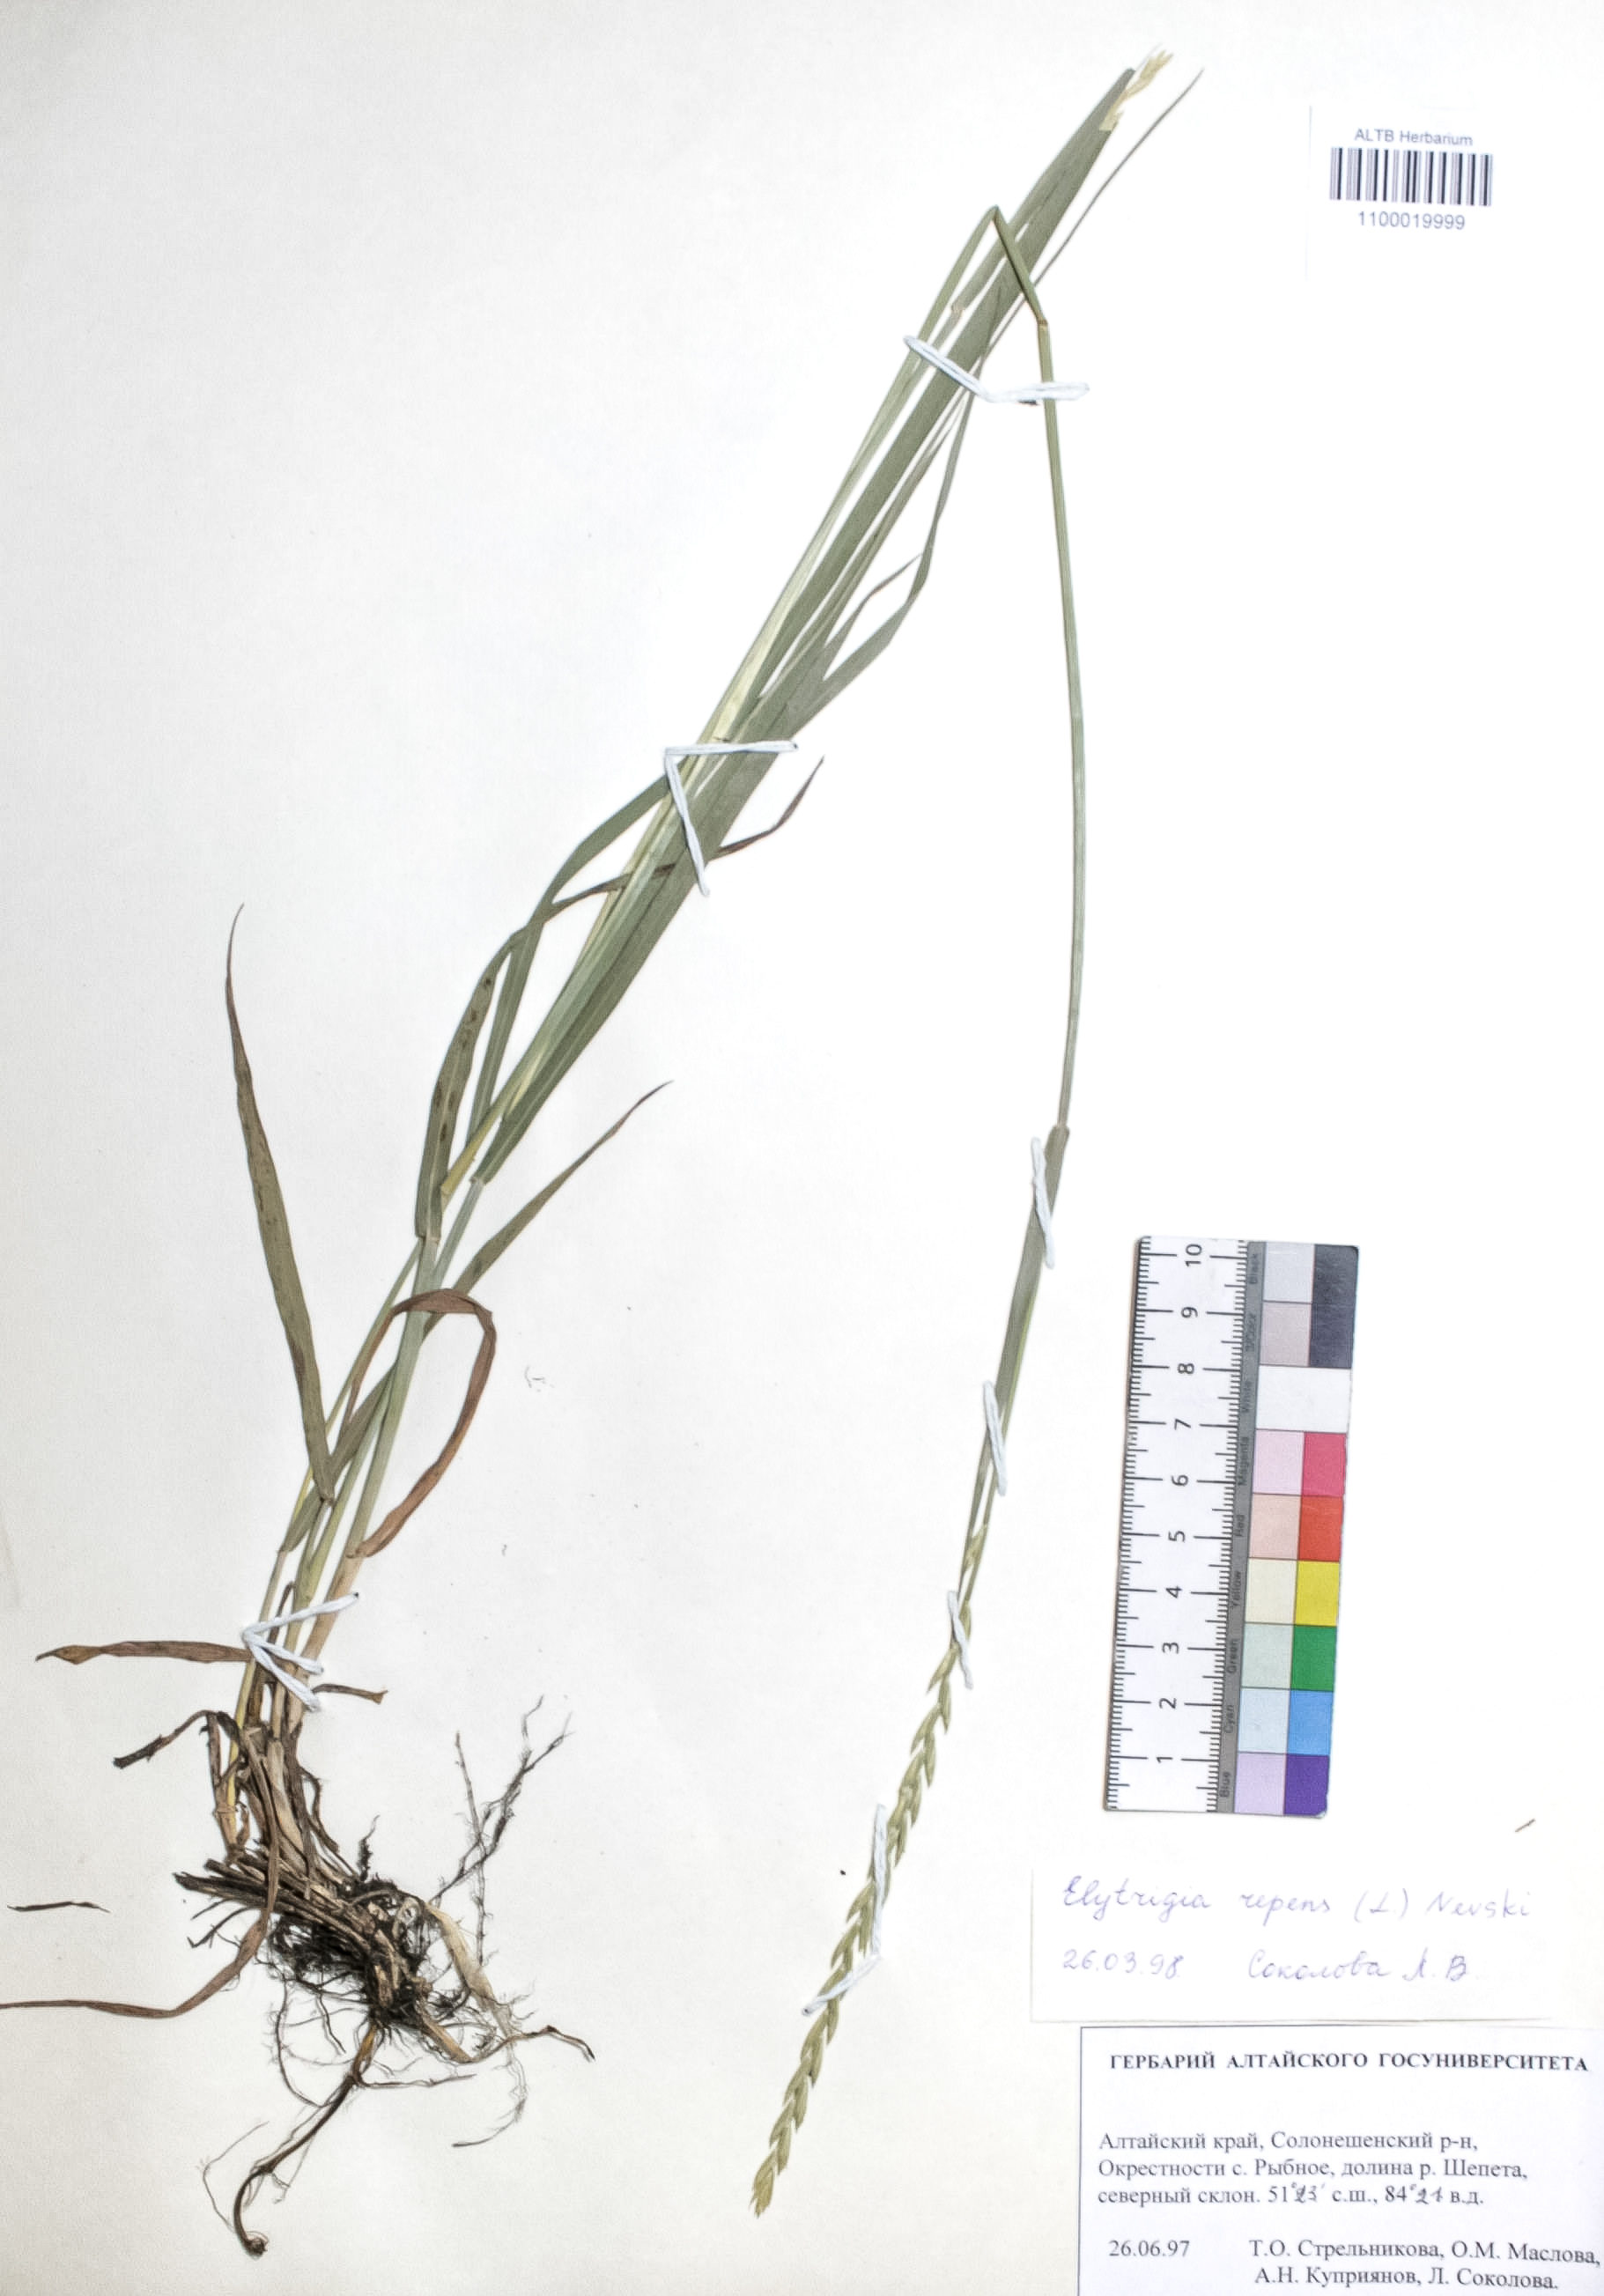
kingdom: Plantae
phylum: Tracheophyta
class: Liliopsida
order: Poales
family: Poaceae
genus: Elymus
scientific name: Elymus repens
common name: Quackgrass
